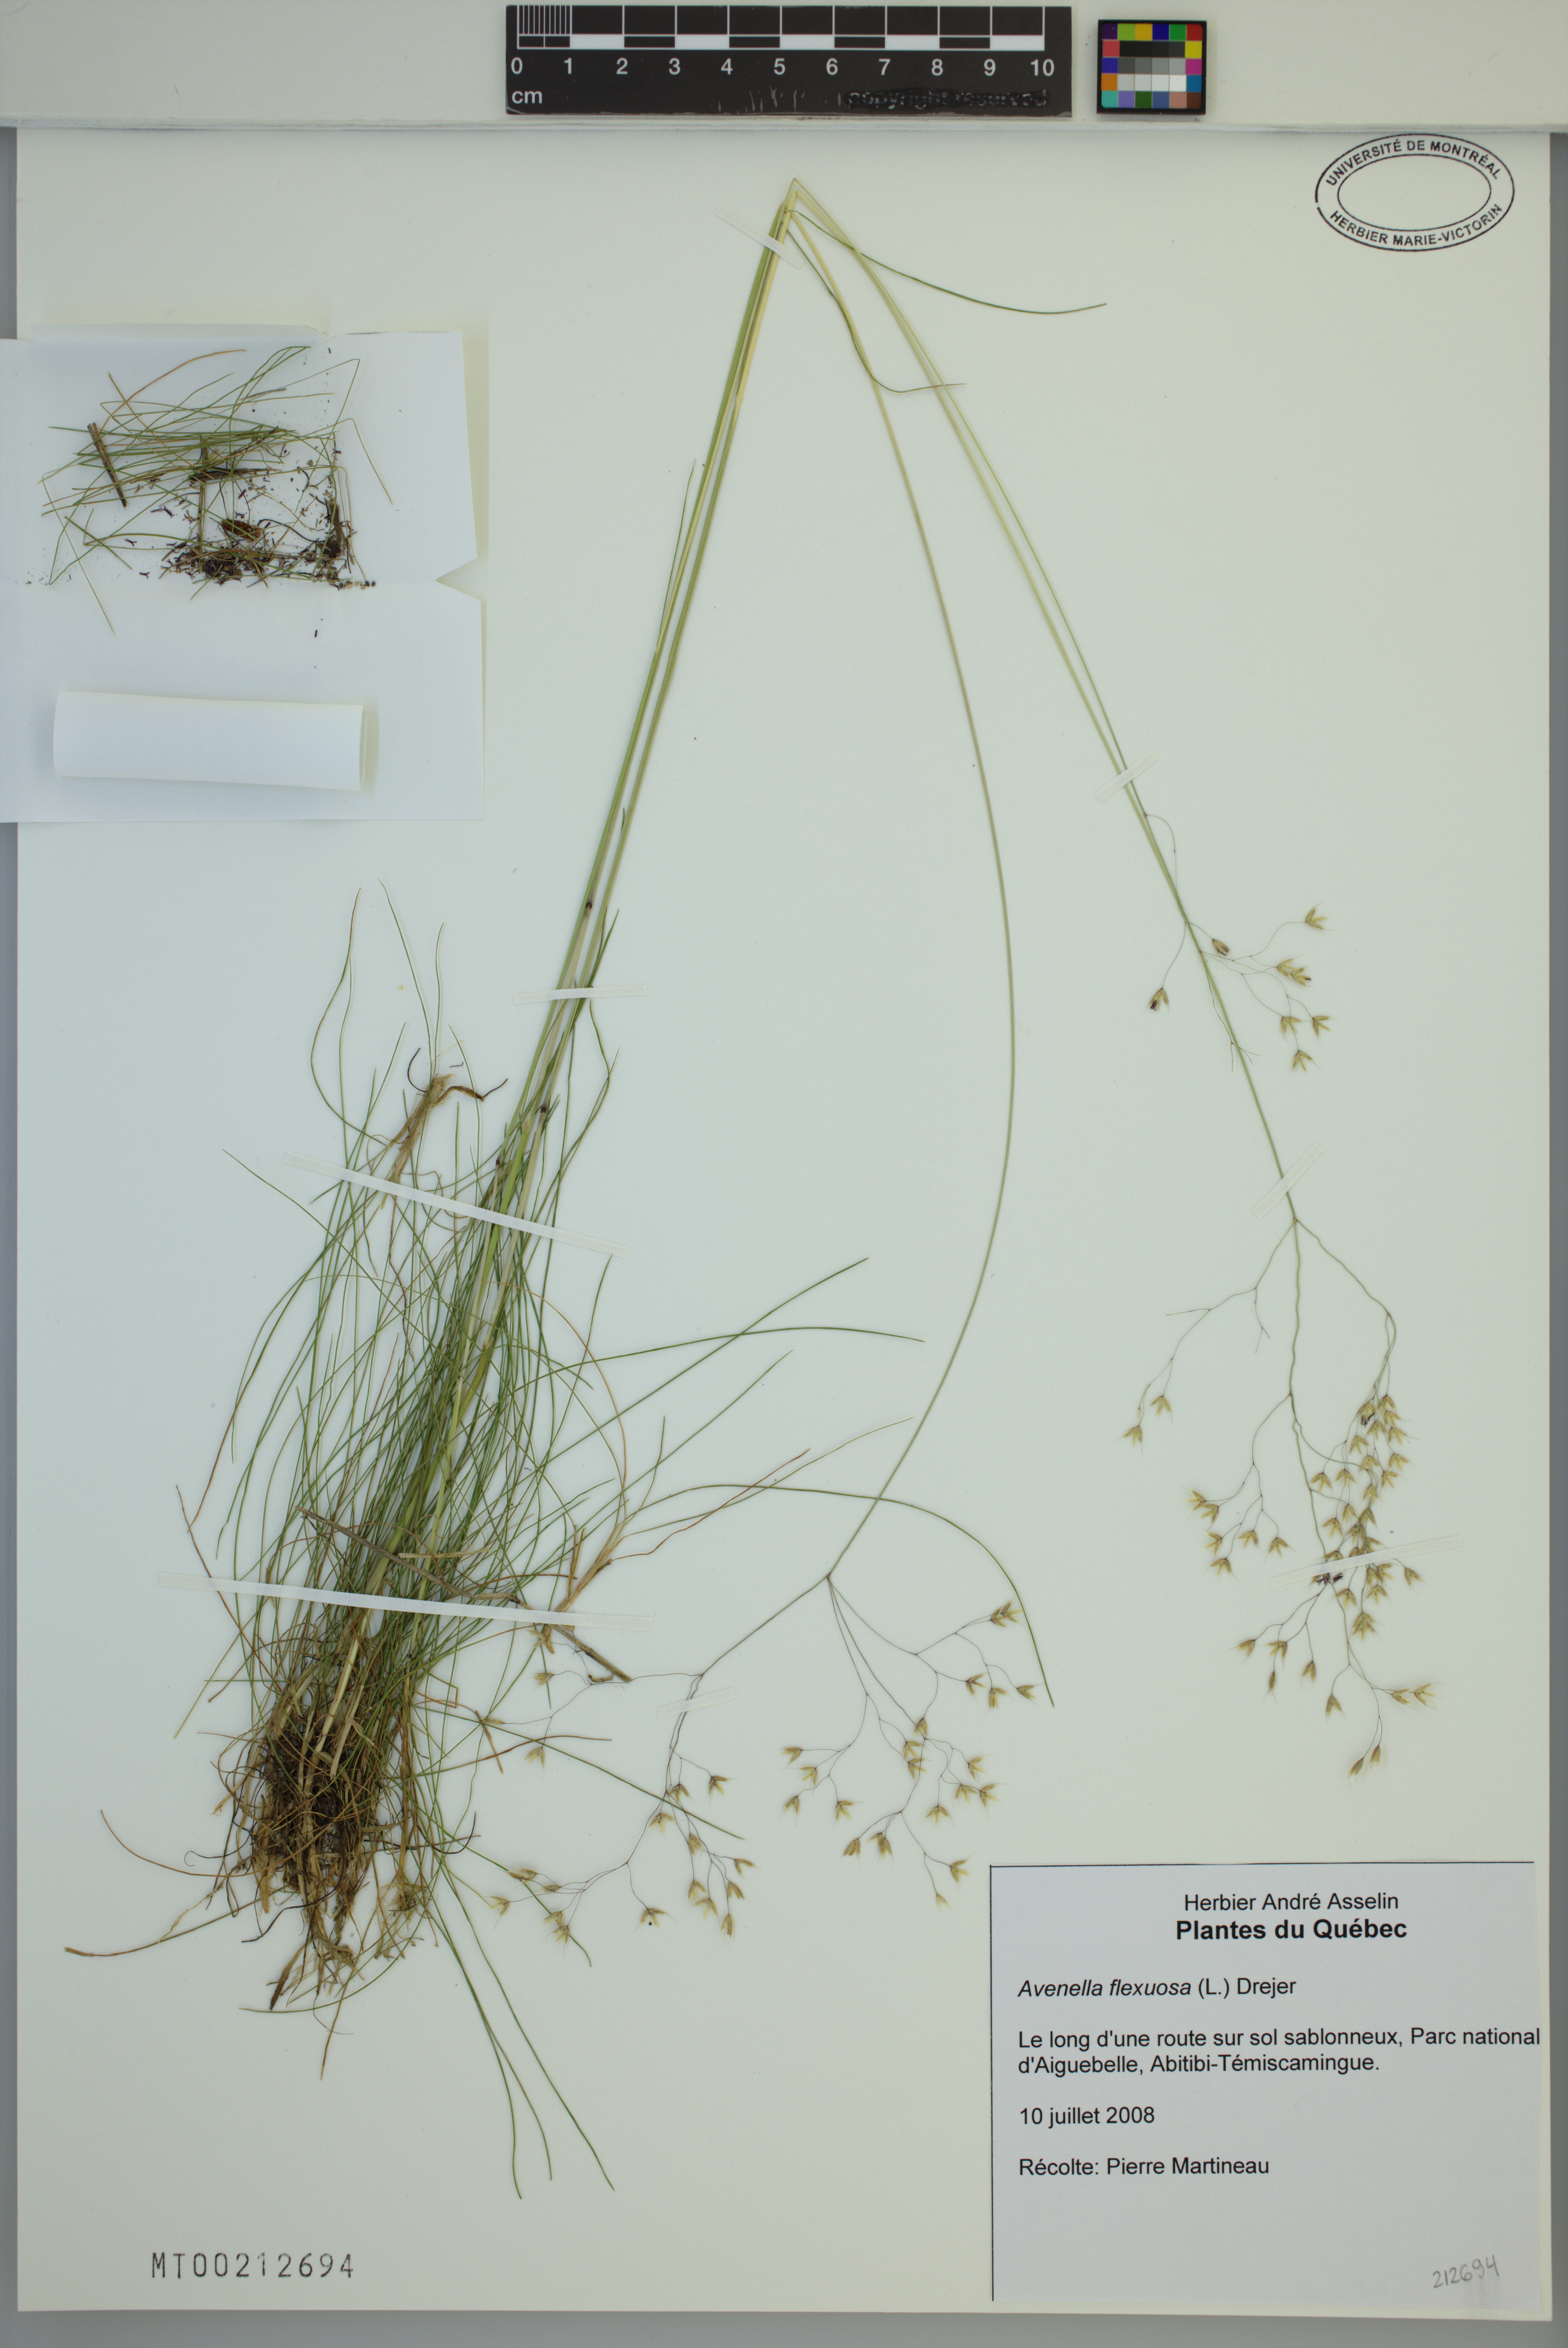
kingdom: Plantae
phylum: Tracheophyta
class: Liliopsida
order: Poales
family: Poaceae
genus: Avenella
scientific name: Avenella flexuosa
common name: Wavy hairgrass
